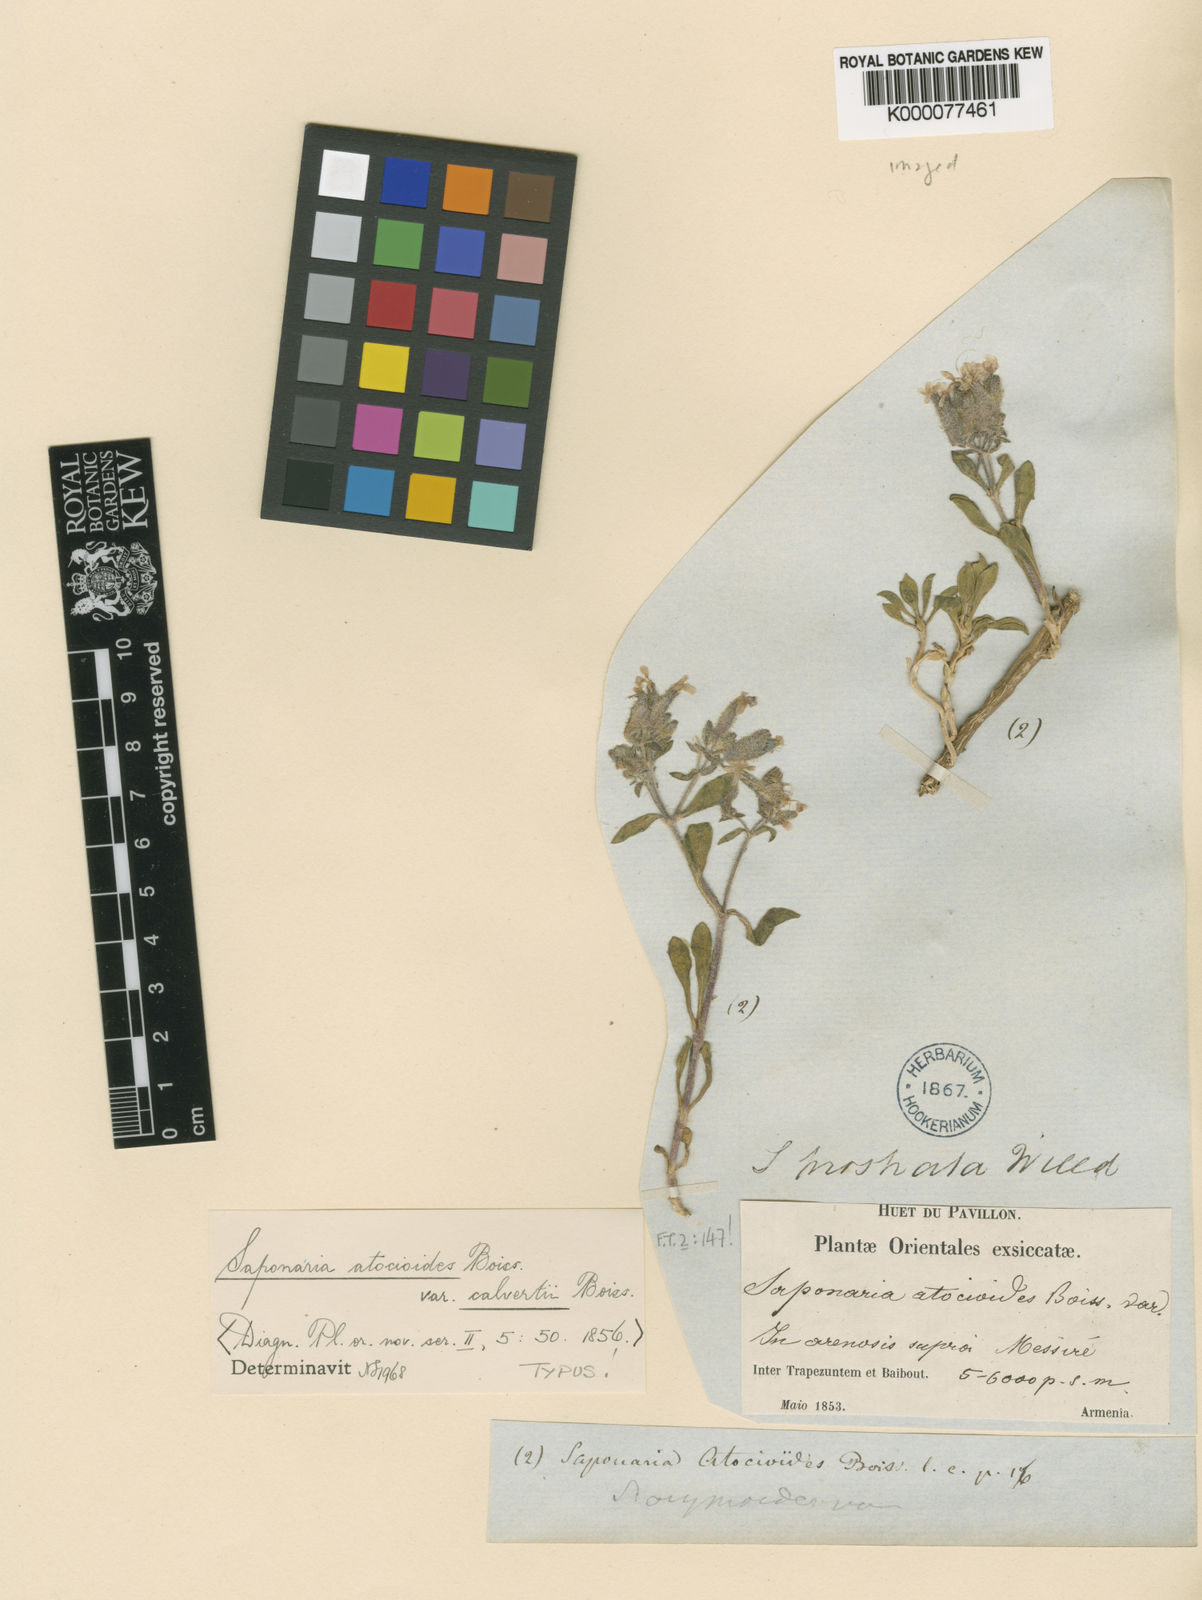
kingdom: Plantae
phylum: Tracheophyta
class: Magnoliopsida
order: Caryophyllales
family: Caryophyllaceae
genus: Saponaria
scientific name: Saponaria prostrata
